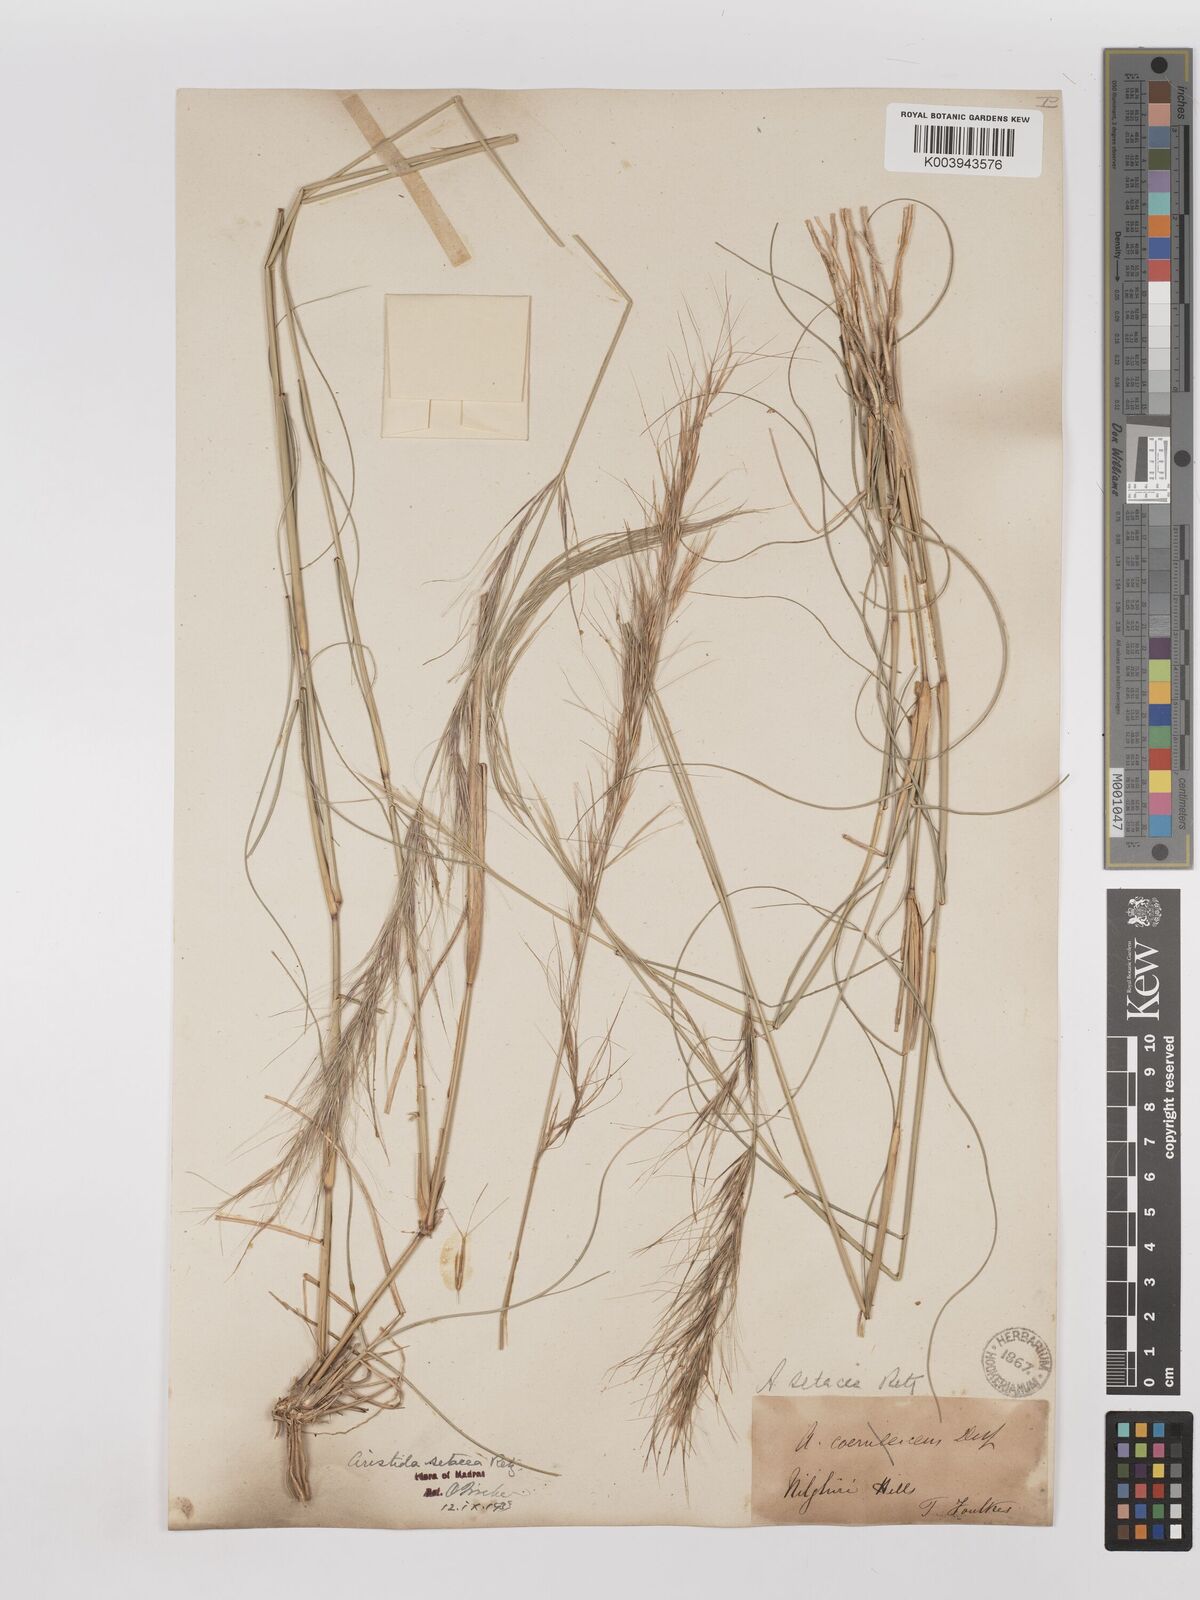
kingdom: Plantae
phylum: Tracheophyta
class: Liliopsida
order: Poales
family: Poaceae
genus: Aristida
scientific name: Aristida setacea
